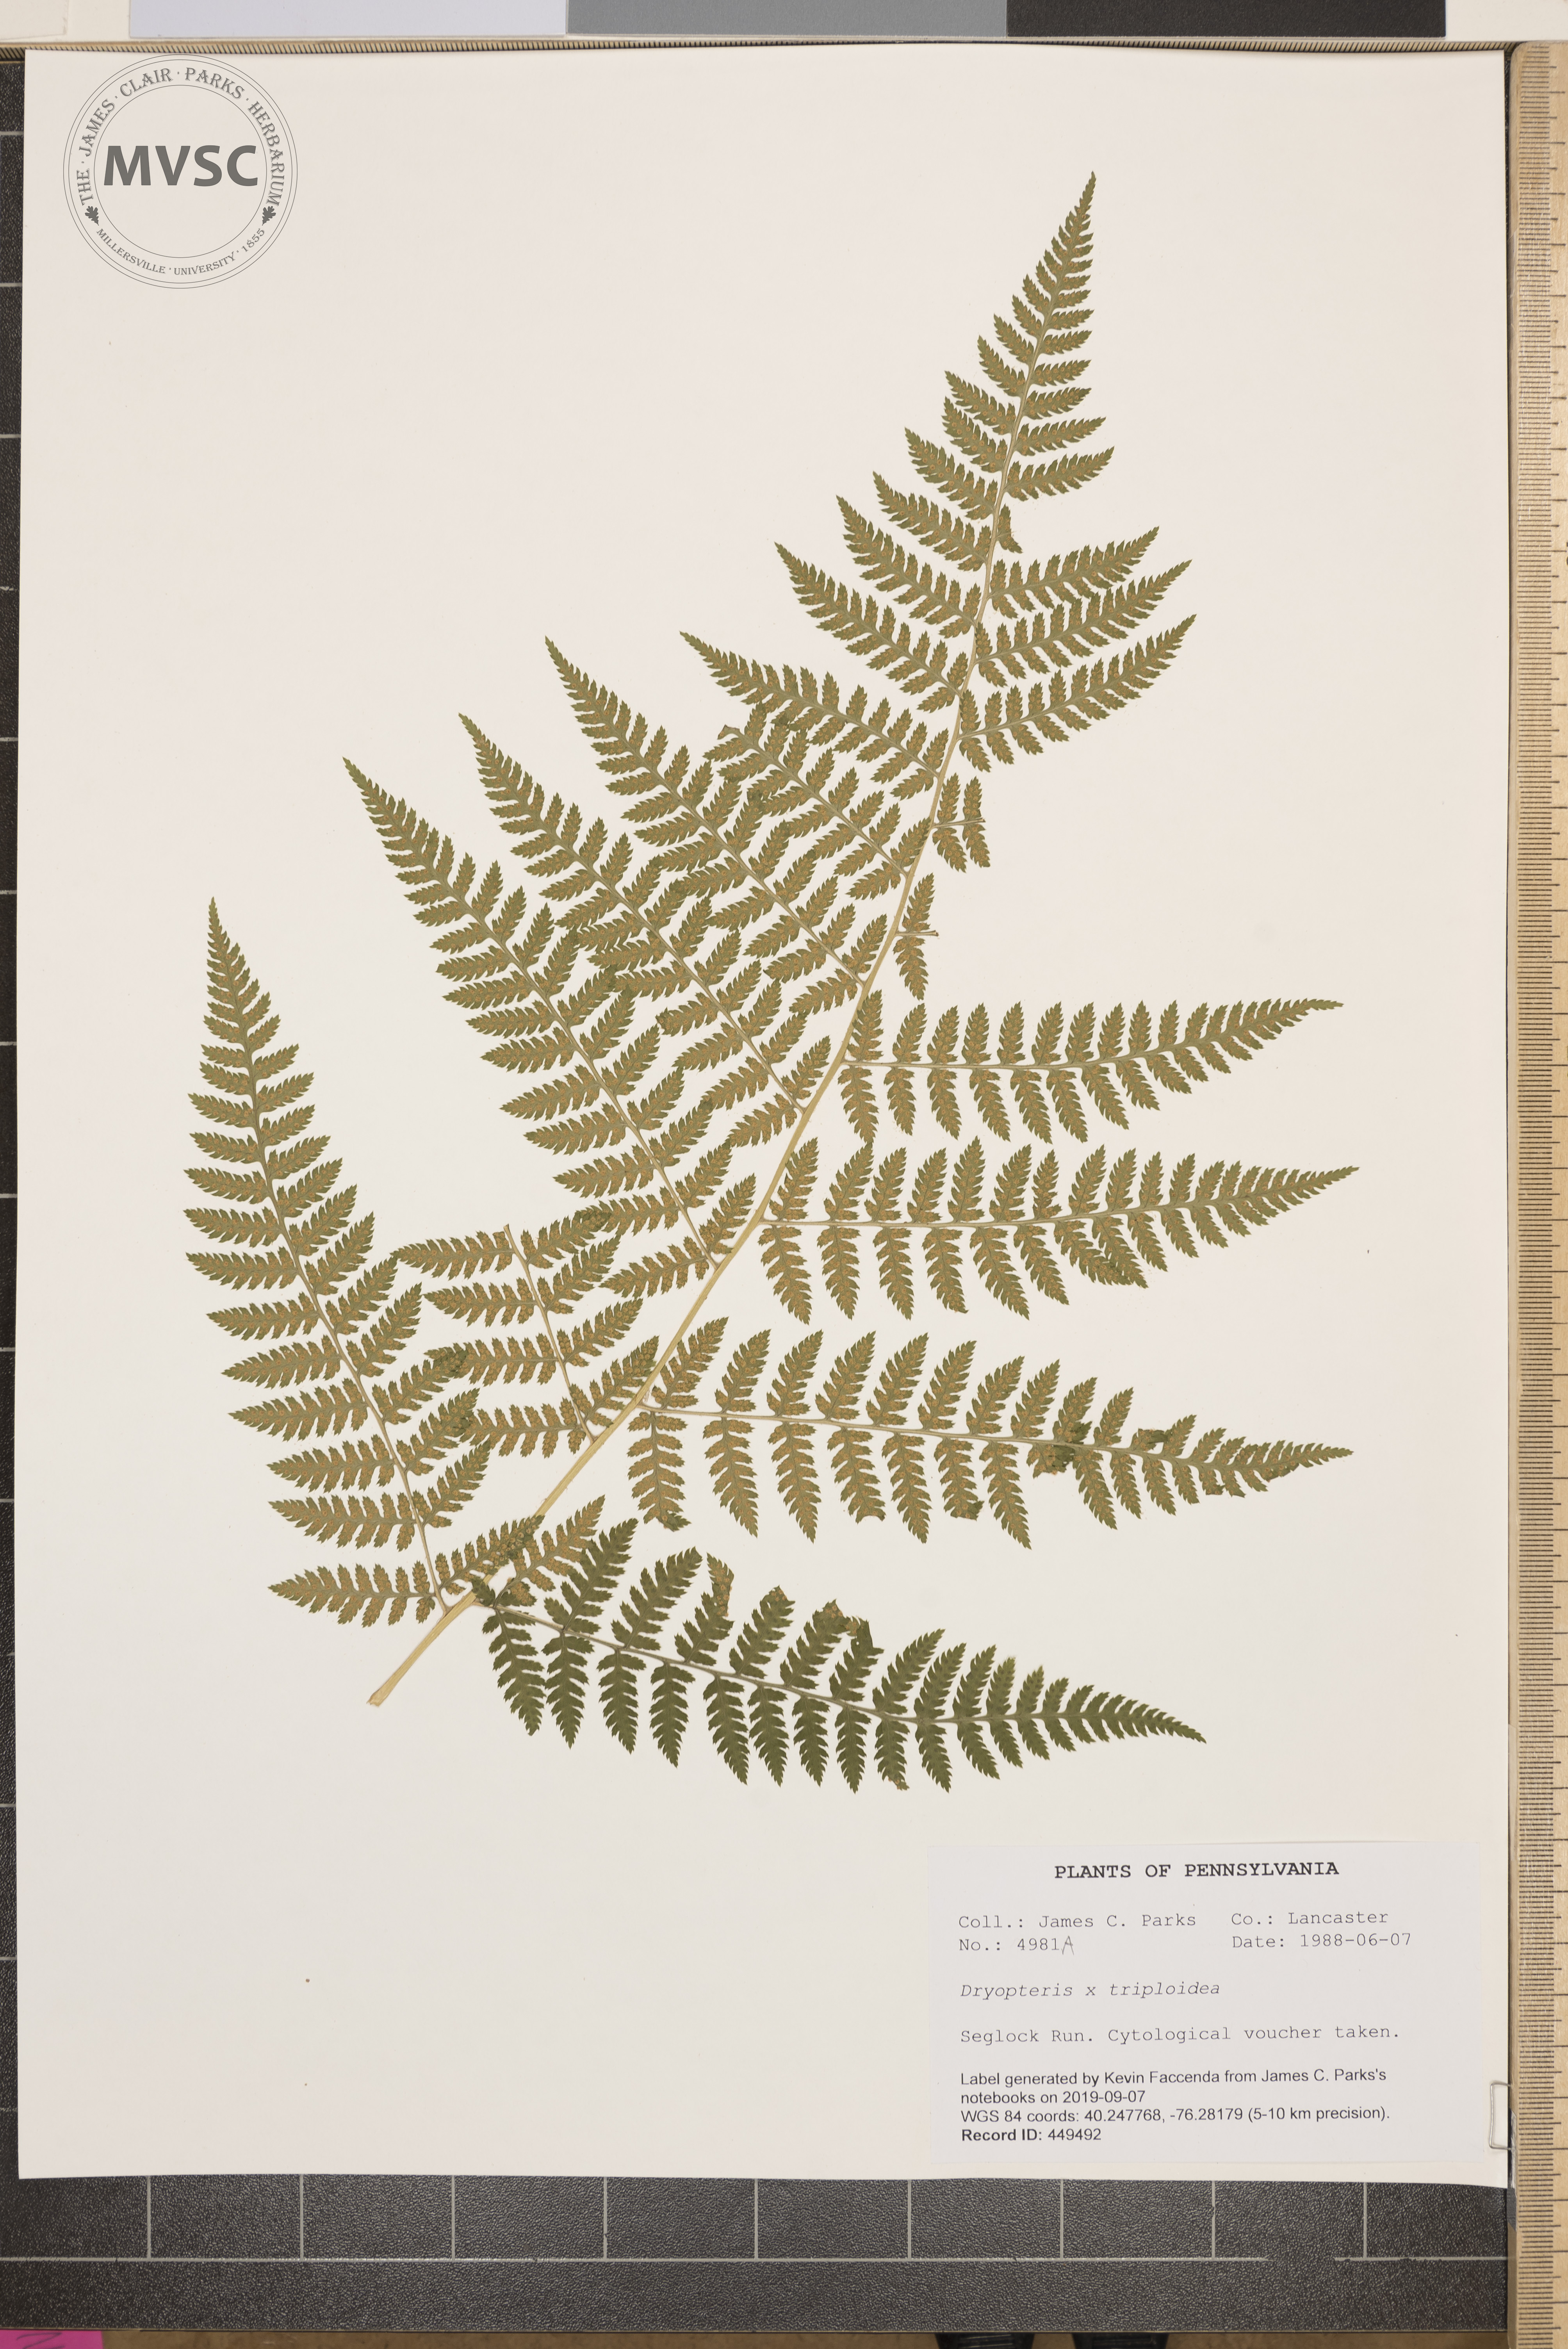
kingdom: Plantae
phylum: Tracheophyta
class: Polypodiopsida
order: Polypodiales
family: Dryopteridaceae
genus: Dryopteris
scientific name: Dryopteris triploidea
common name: Fruitful wood fern
